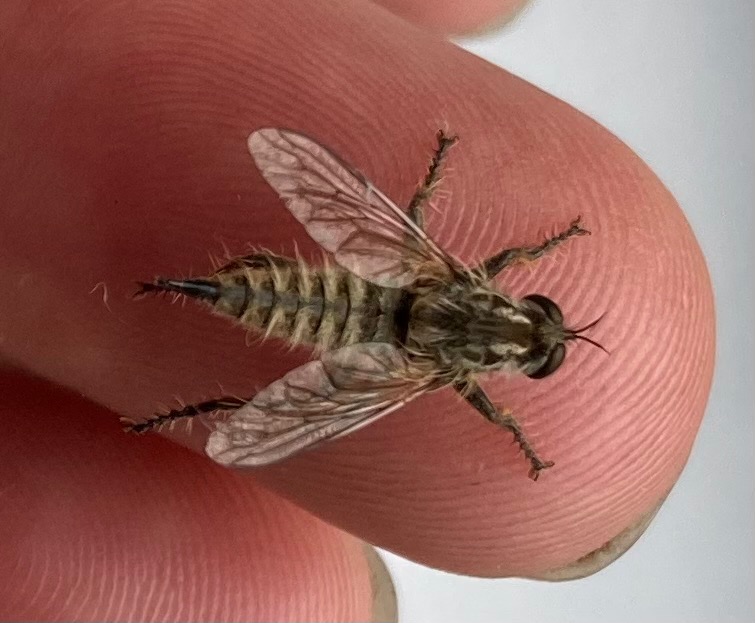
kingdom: Animalia
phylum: Arthropoda
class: Insecta
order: Diptera
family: Asilidae
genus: Dysmachus
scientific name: Dysmachus trigonus
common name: Hvid skægrovflue
